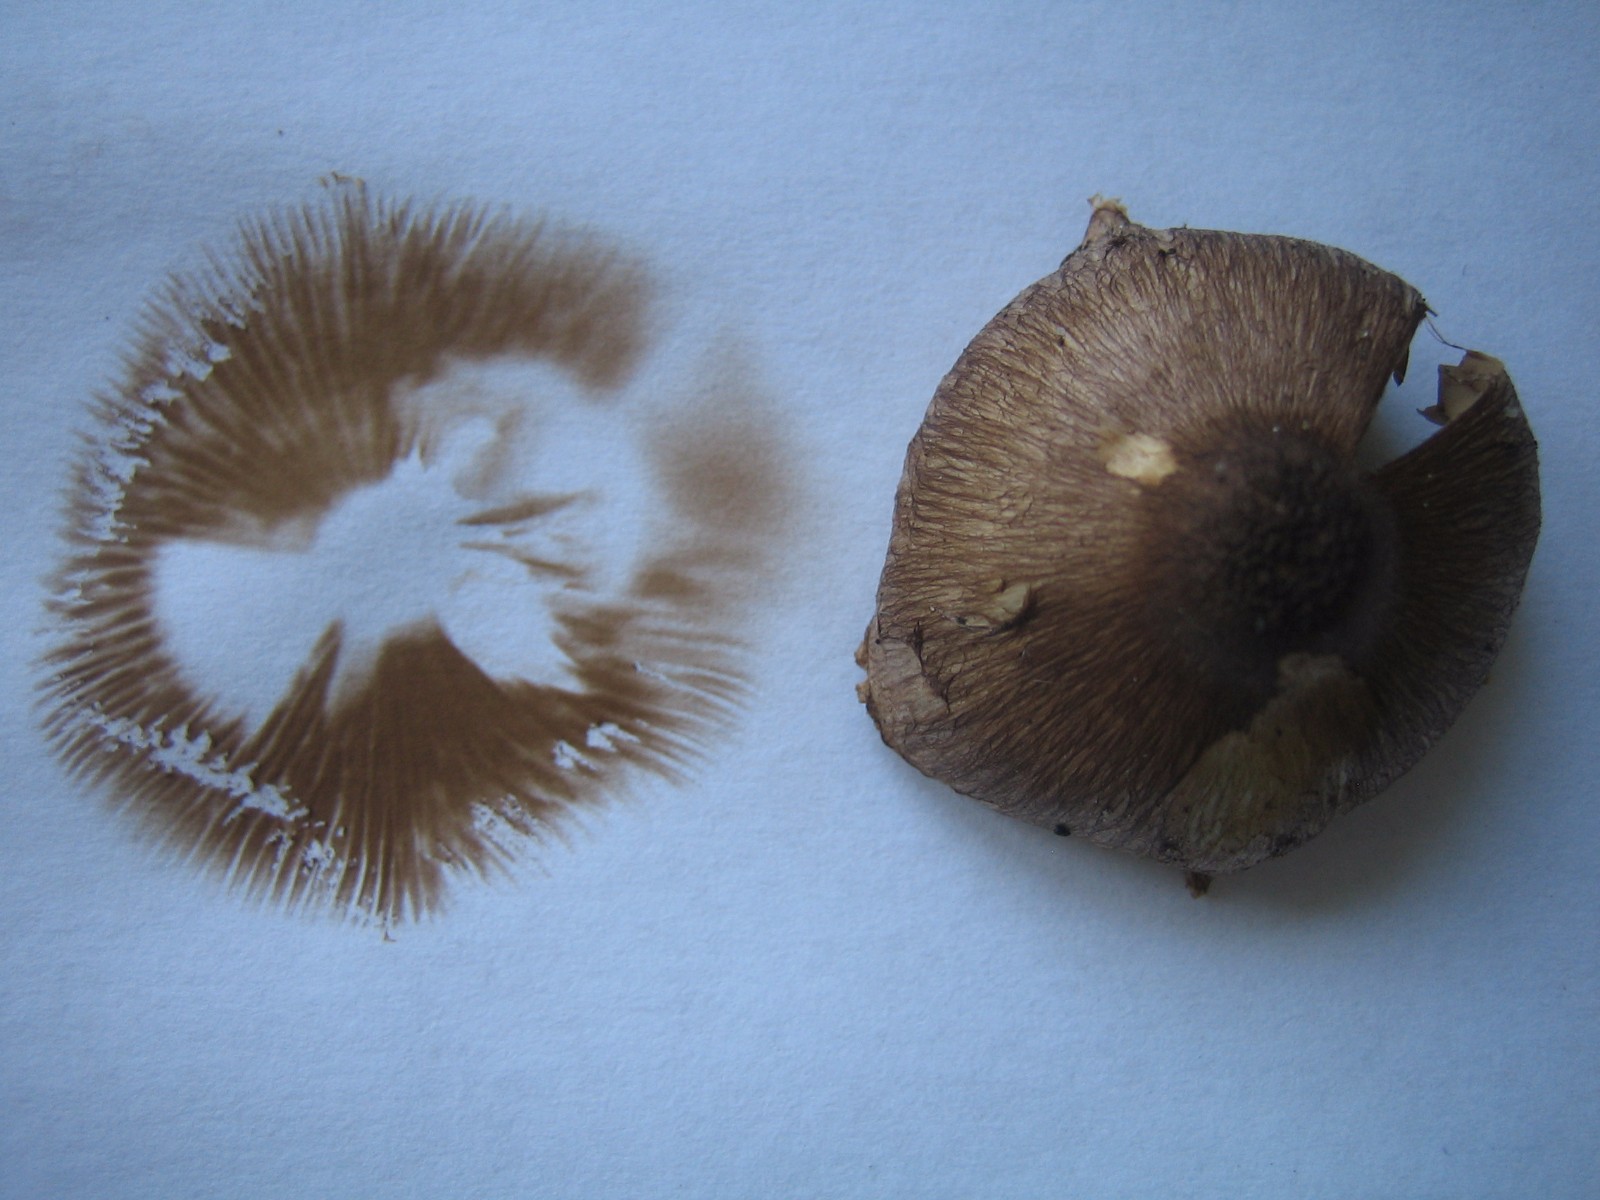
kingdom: Fungi
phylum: Basidiomycota
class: Agaricomycetes
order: Agaricales
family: Inocybaceae
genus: Inocybe
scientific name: Inocybe
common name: trævlhat
